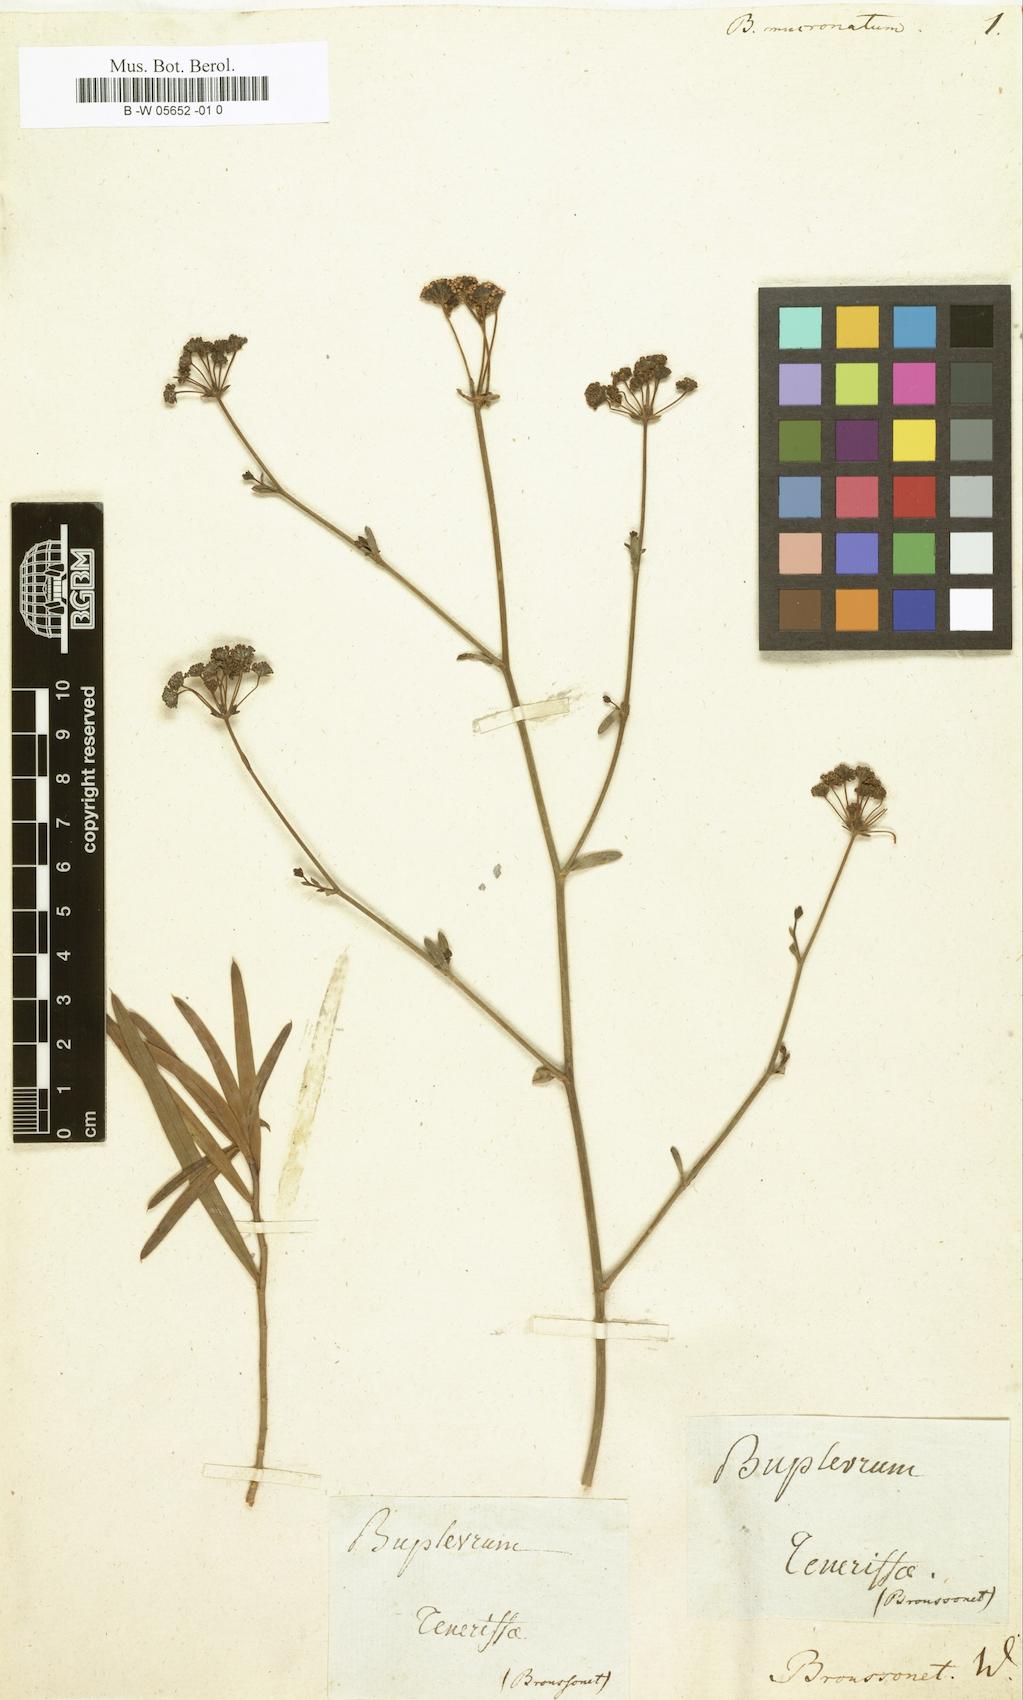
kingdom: Plantae
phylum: Tracheophyta
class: Magnoliopsida
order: Apiales
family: Apiaceae
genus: Bupleurum
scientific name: Bupleurum
